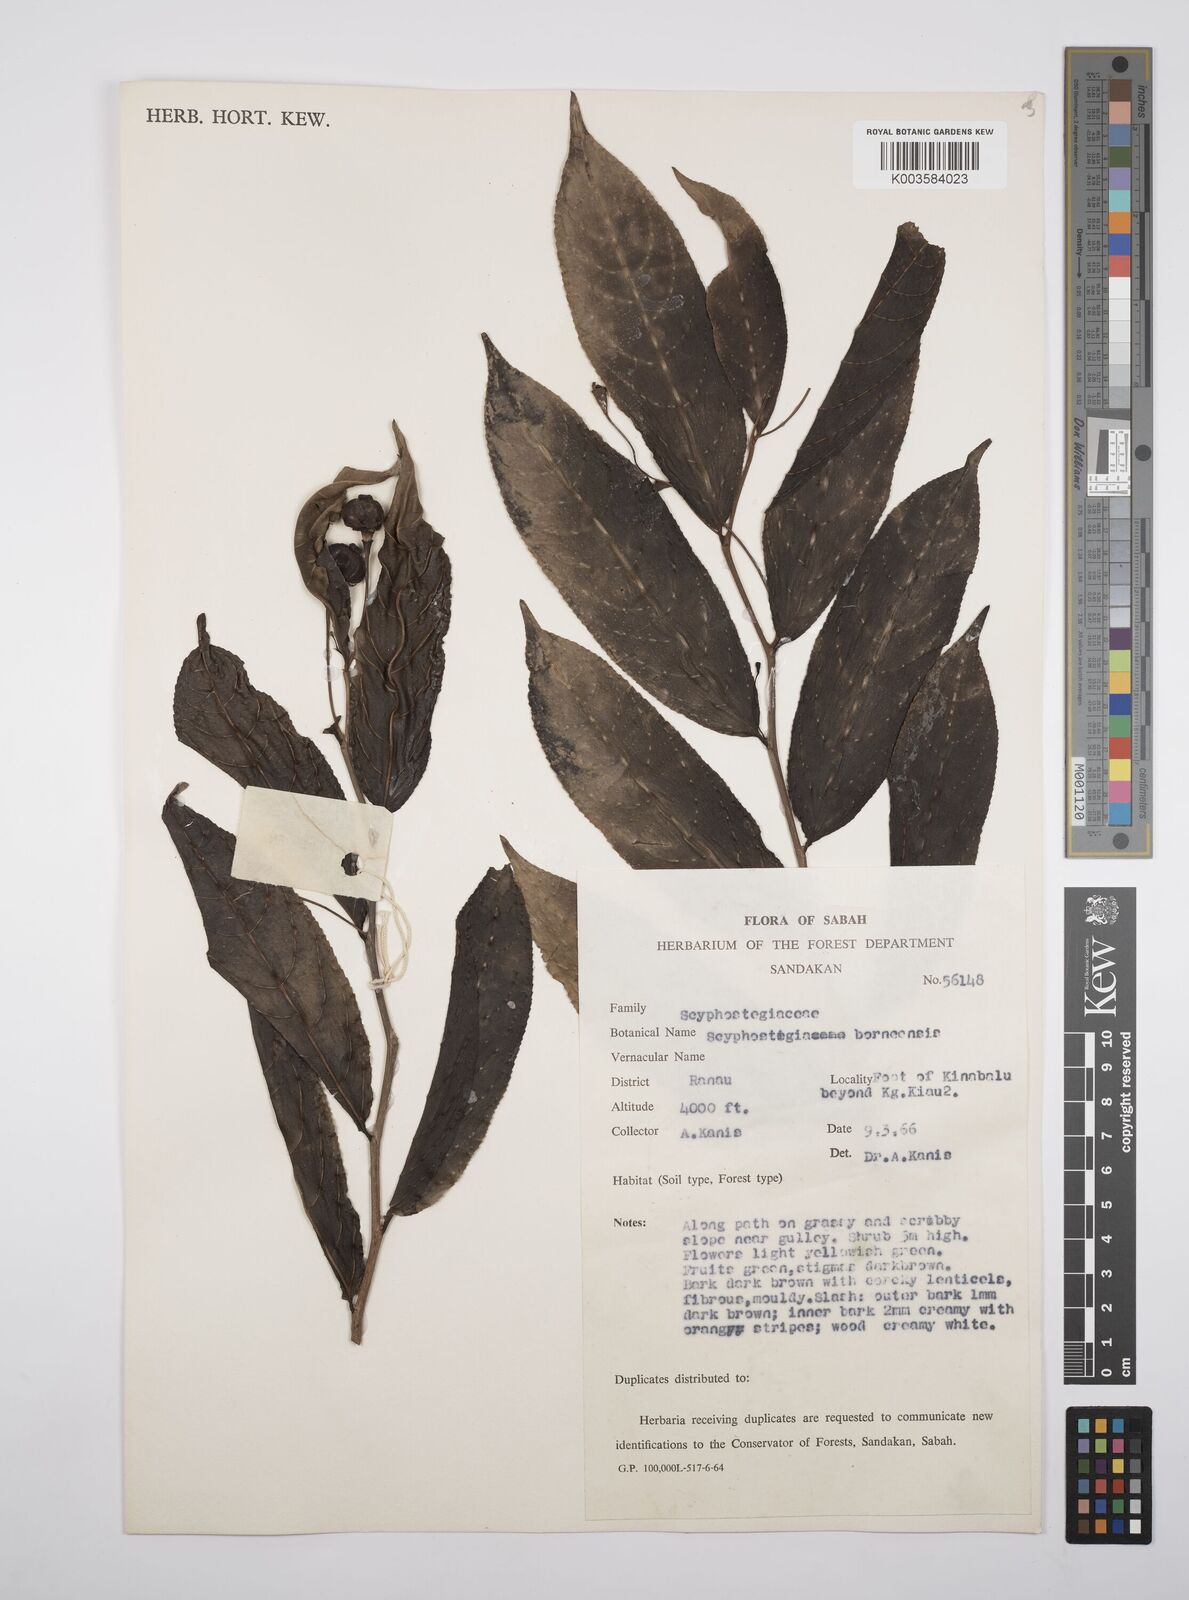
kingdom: Plantae
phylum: Tracheophyta
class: Magnoliopsida
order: Malpighiales
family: Salicaceae
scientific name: Salicaceae
